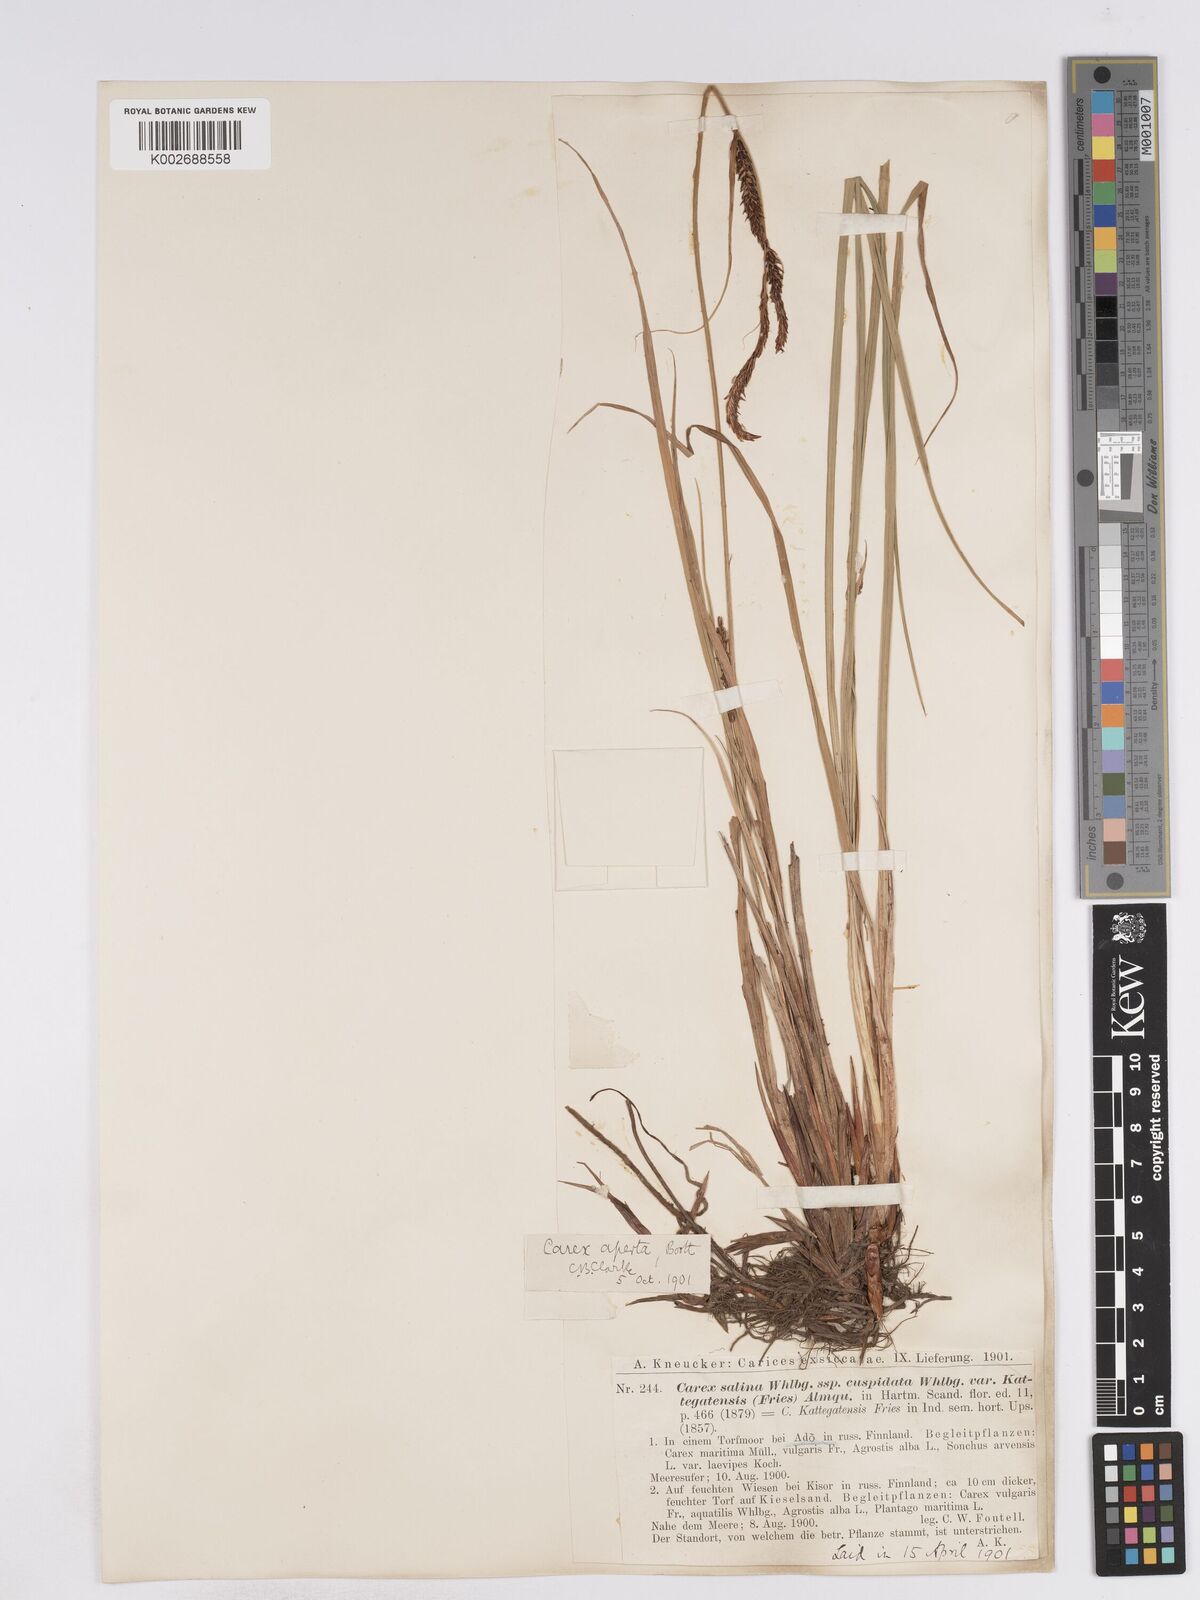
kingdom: Plantae
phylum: Tracheophyta
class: Liliopsida
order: Poales
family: Cyperaceae
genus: Carex
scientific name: Carex recta
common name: Estuarine sedge
